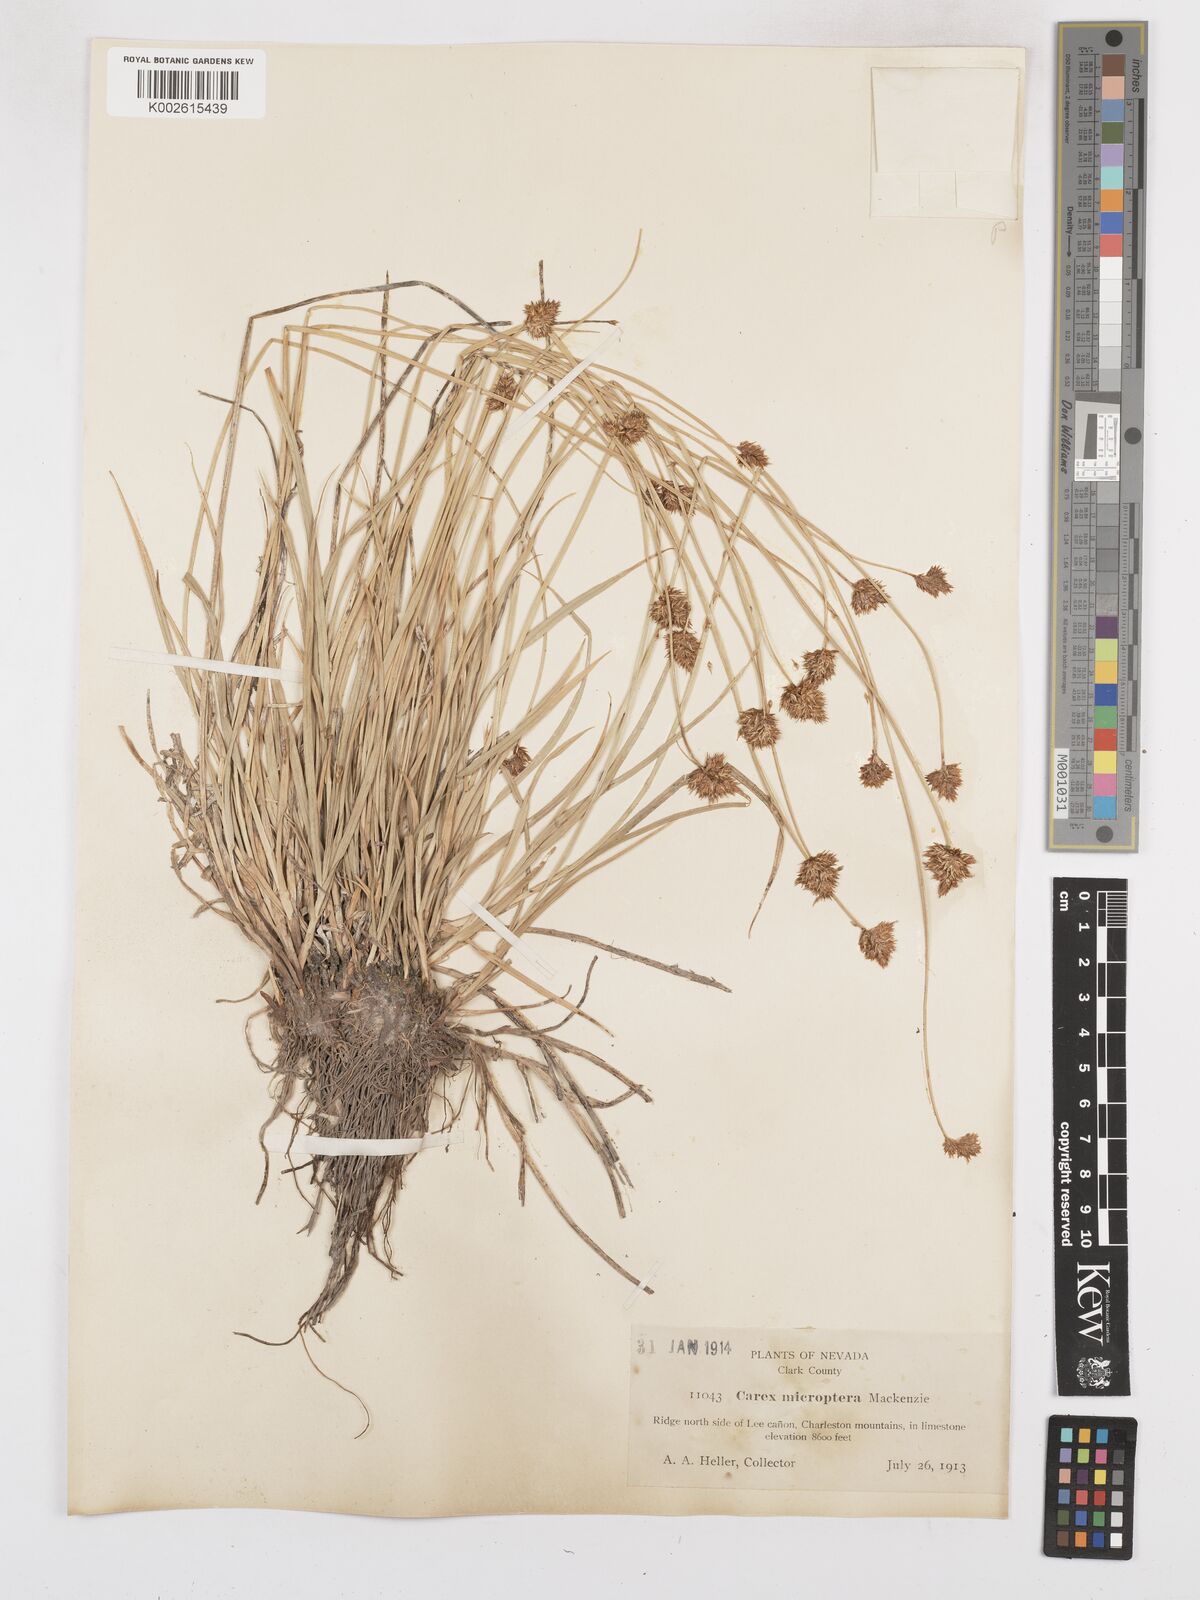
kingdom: Plantae
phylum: Tracheophyta
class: Liliopsida
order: Poales
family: Cyperaceae
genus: Carex
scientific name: Carex microptera
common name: Oval-headed sedge
